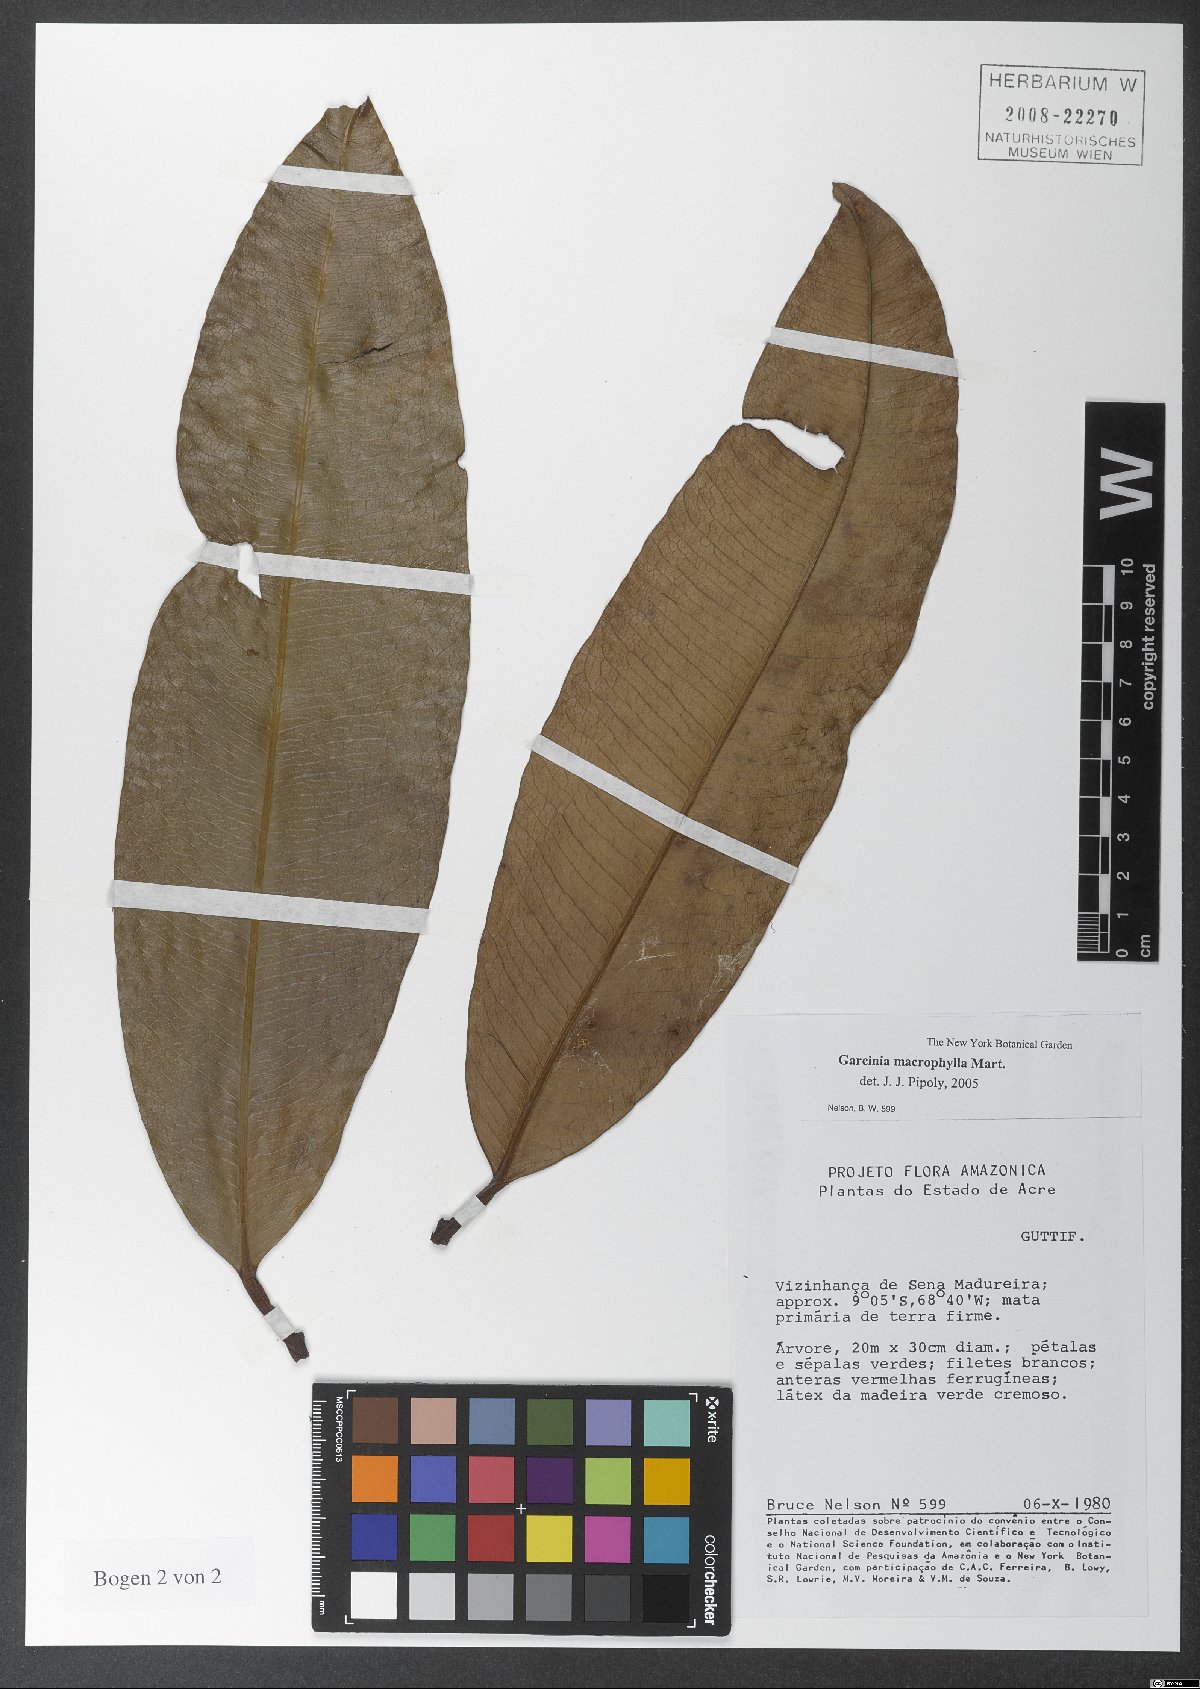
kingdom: Plantae
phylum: Tracheophyta
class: Magnoliopsida
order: Malpighiales
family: Clusiaceae
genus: Garcinia
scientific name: Garcinia macrophylla
